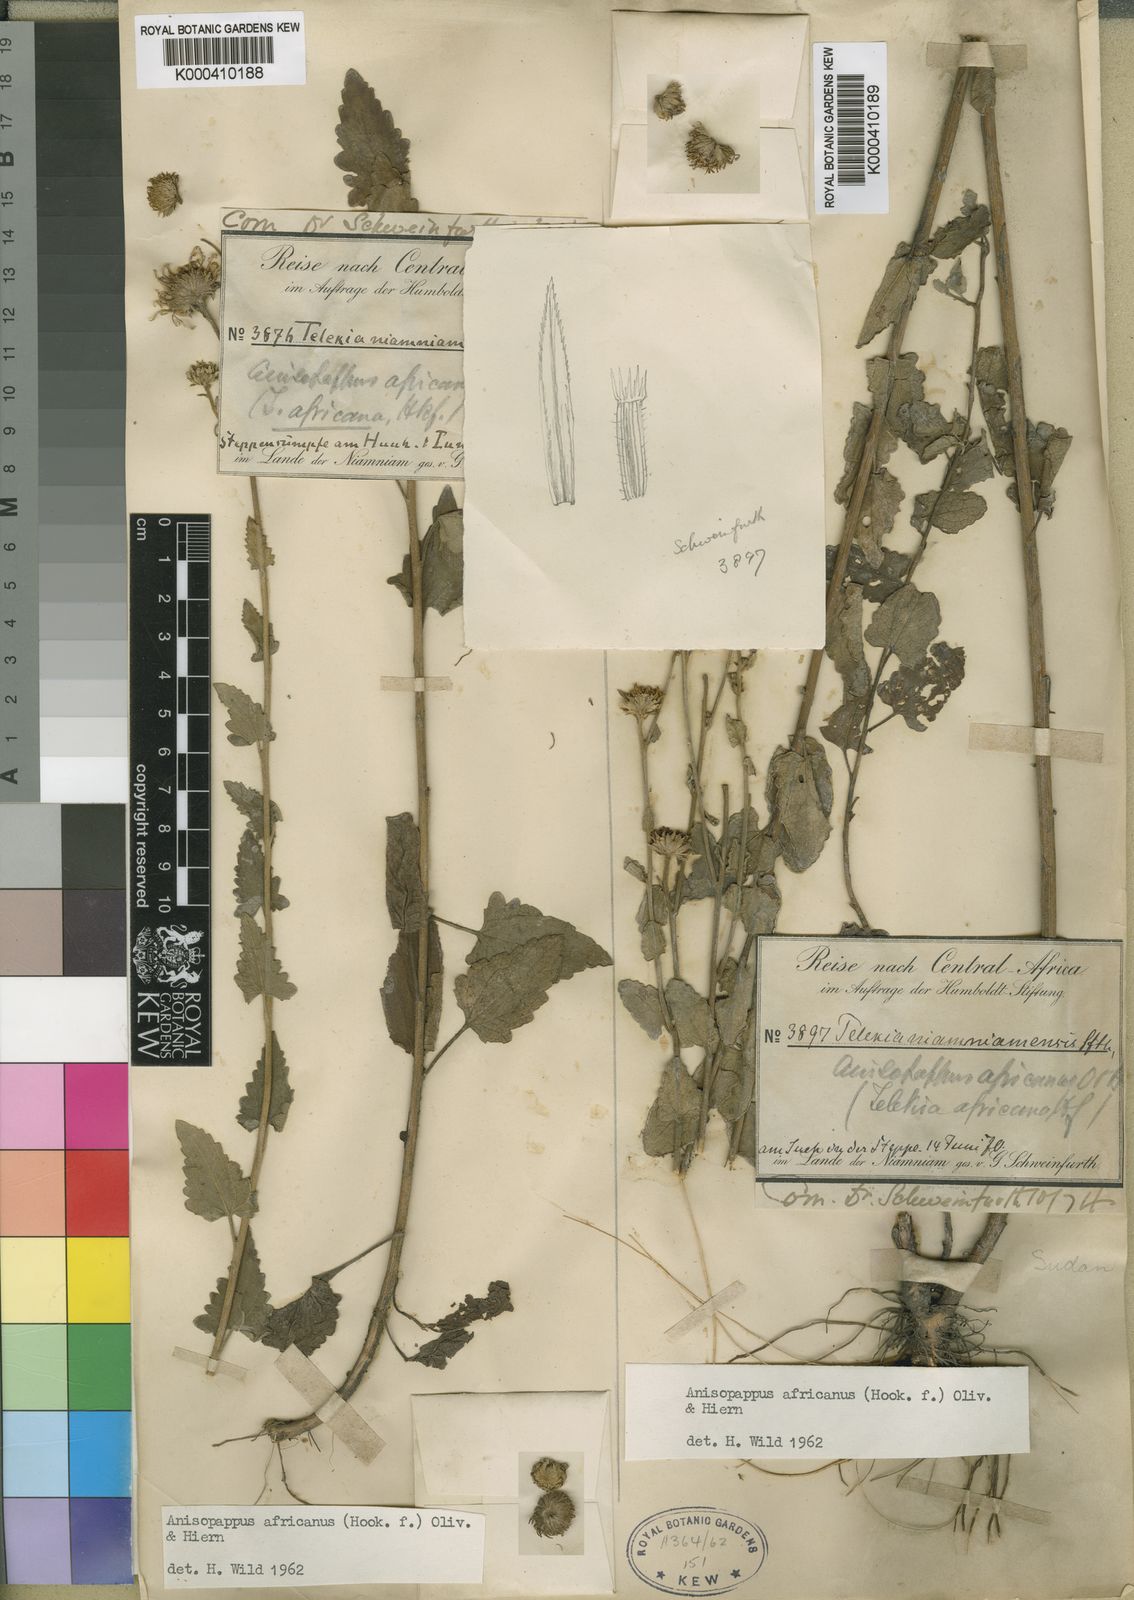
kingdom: Plantae
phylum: Tracheophyta
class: Magnoliopsida
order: Asterales
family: Asteraceae
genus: Anisopappus
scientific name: Anisopappus africanus
